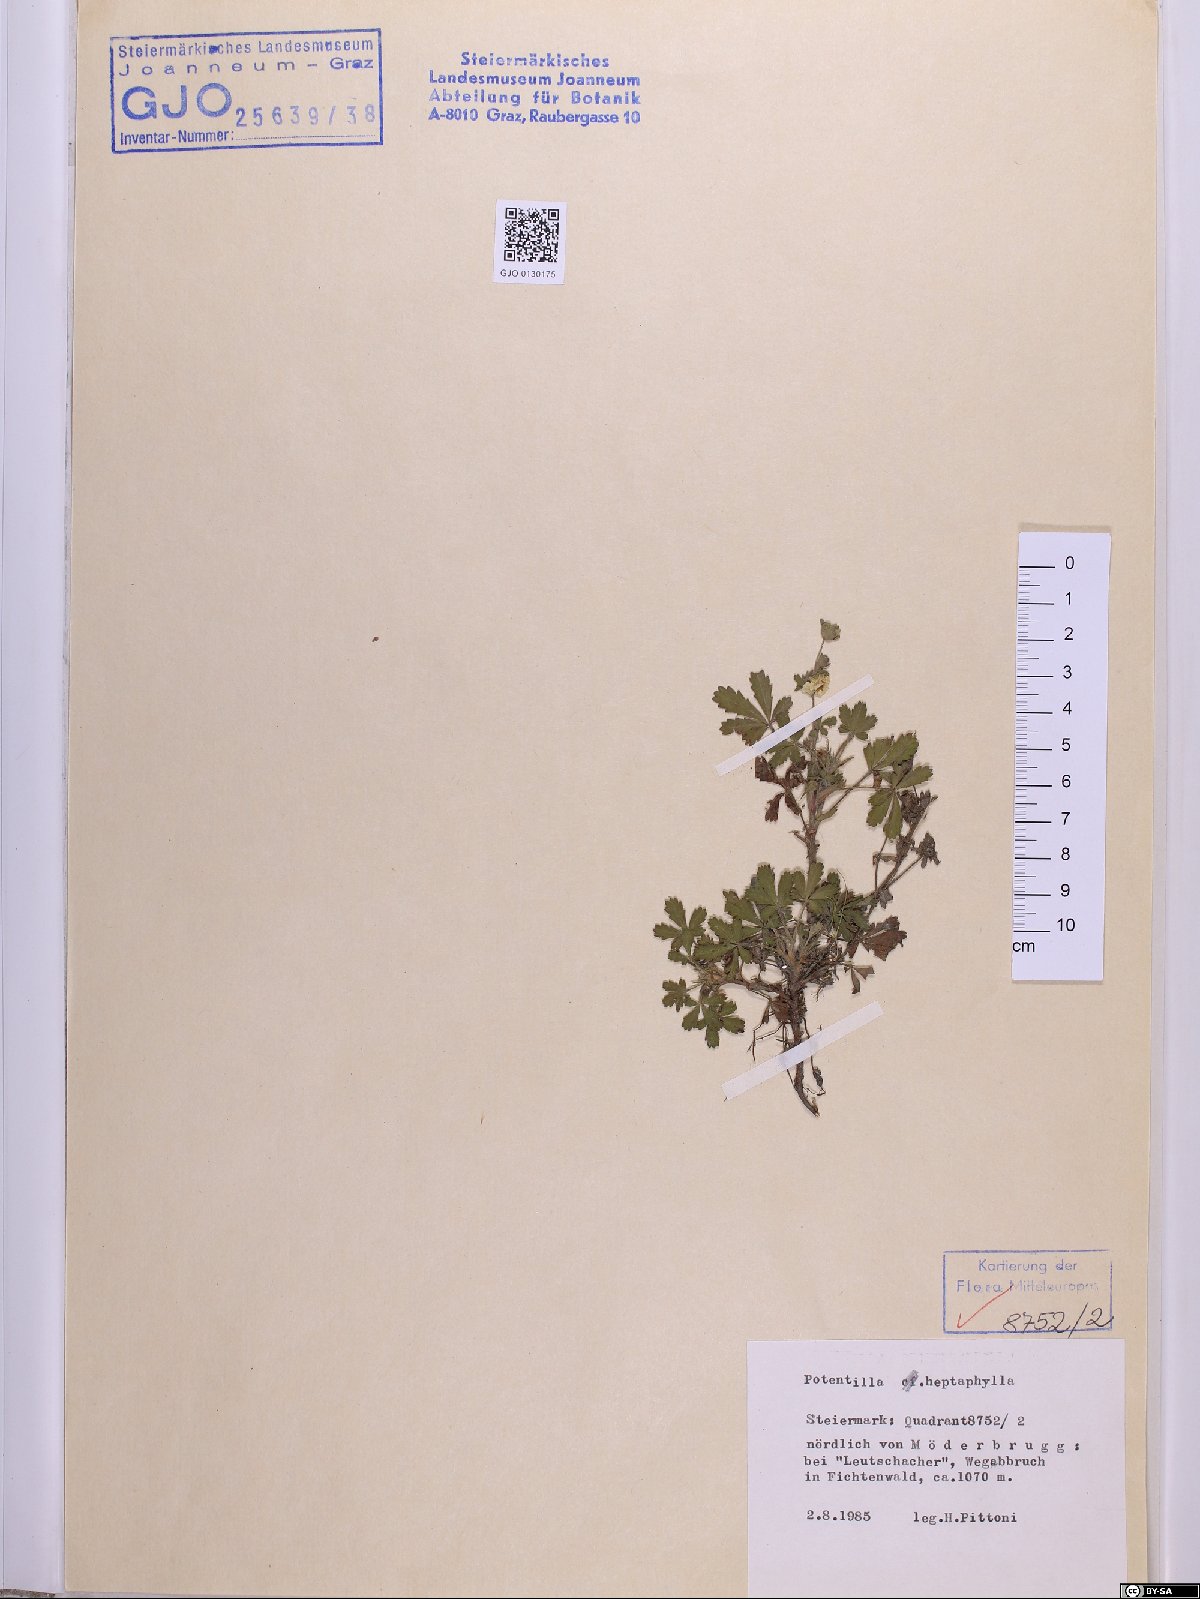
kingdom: Plantae
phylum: Tracheophyta
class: Magnoliopsida
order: Rosales
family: Rosaceae
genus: Potentilla
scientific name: Potentilla heptaphylla
